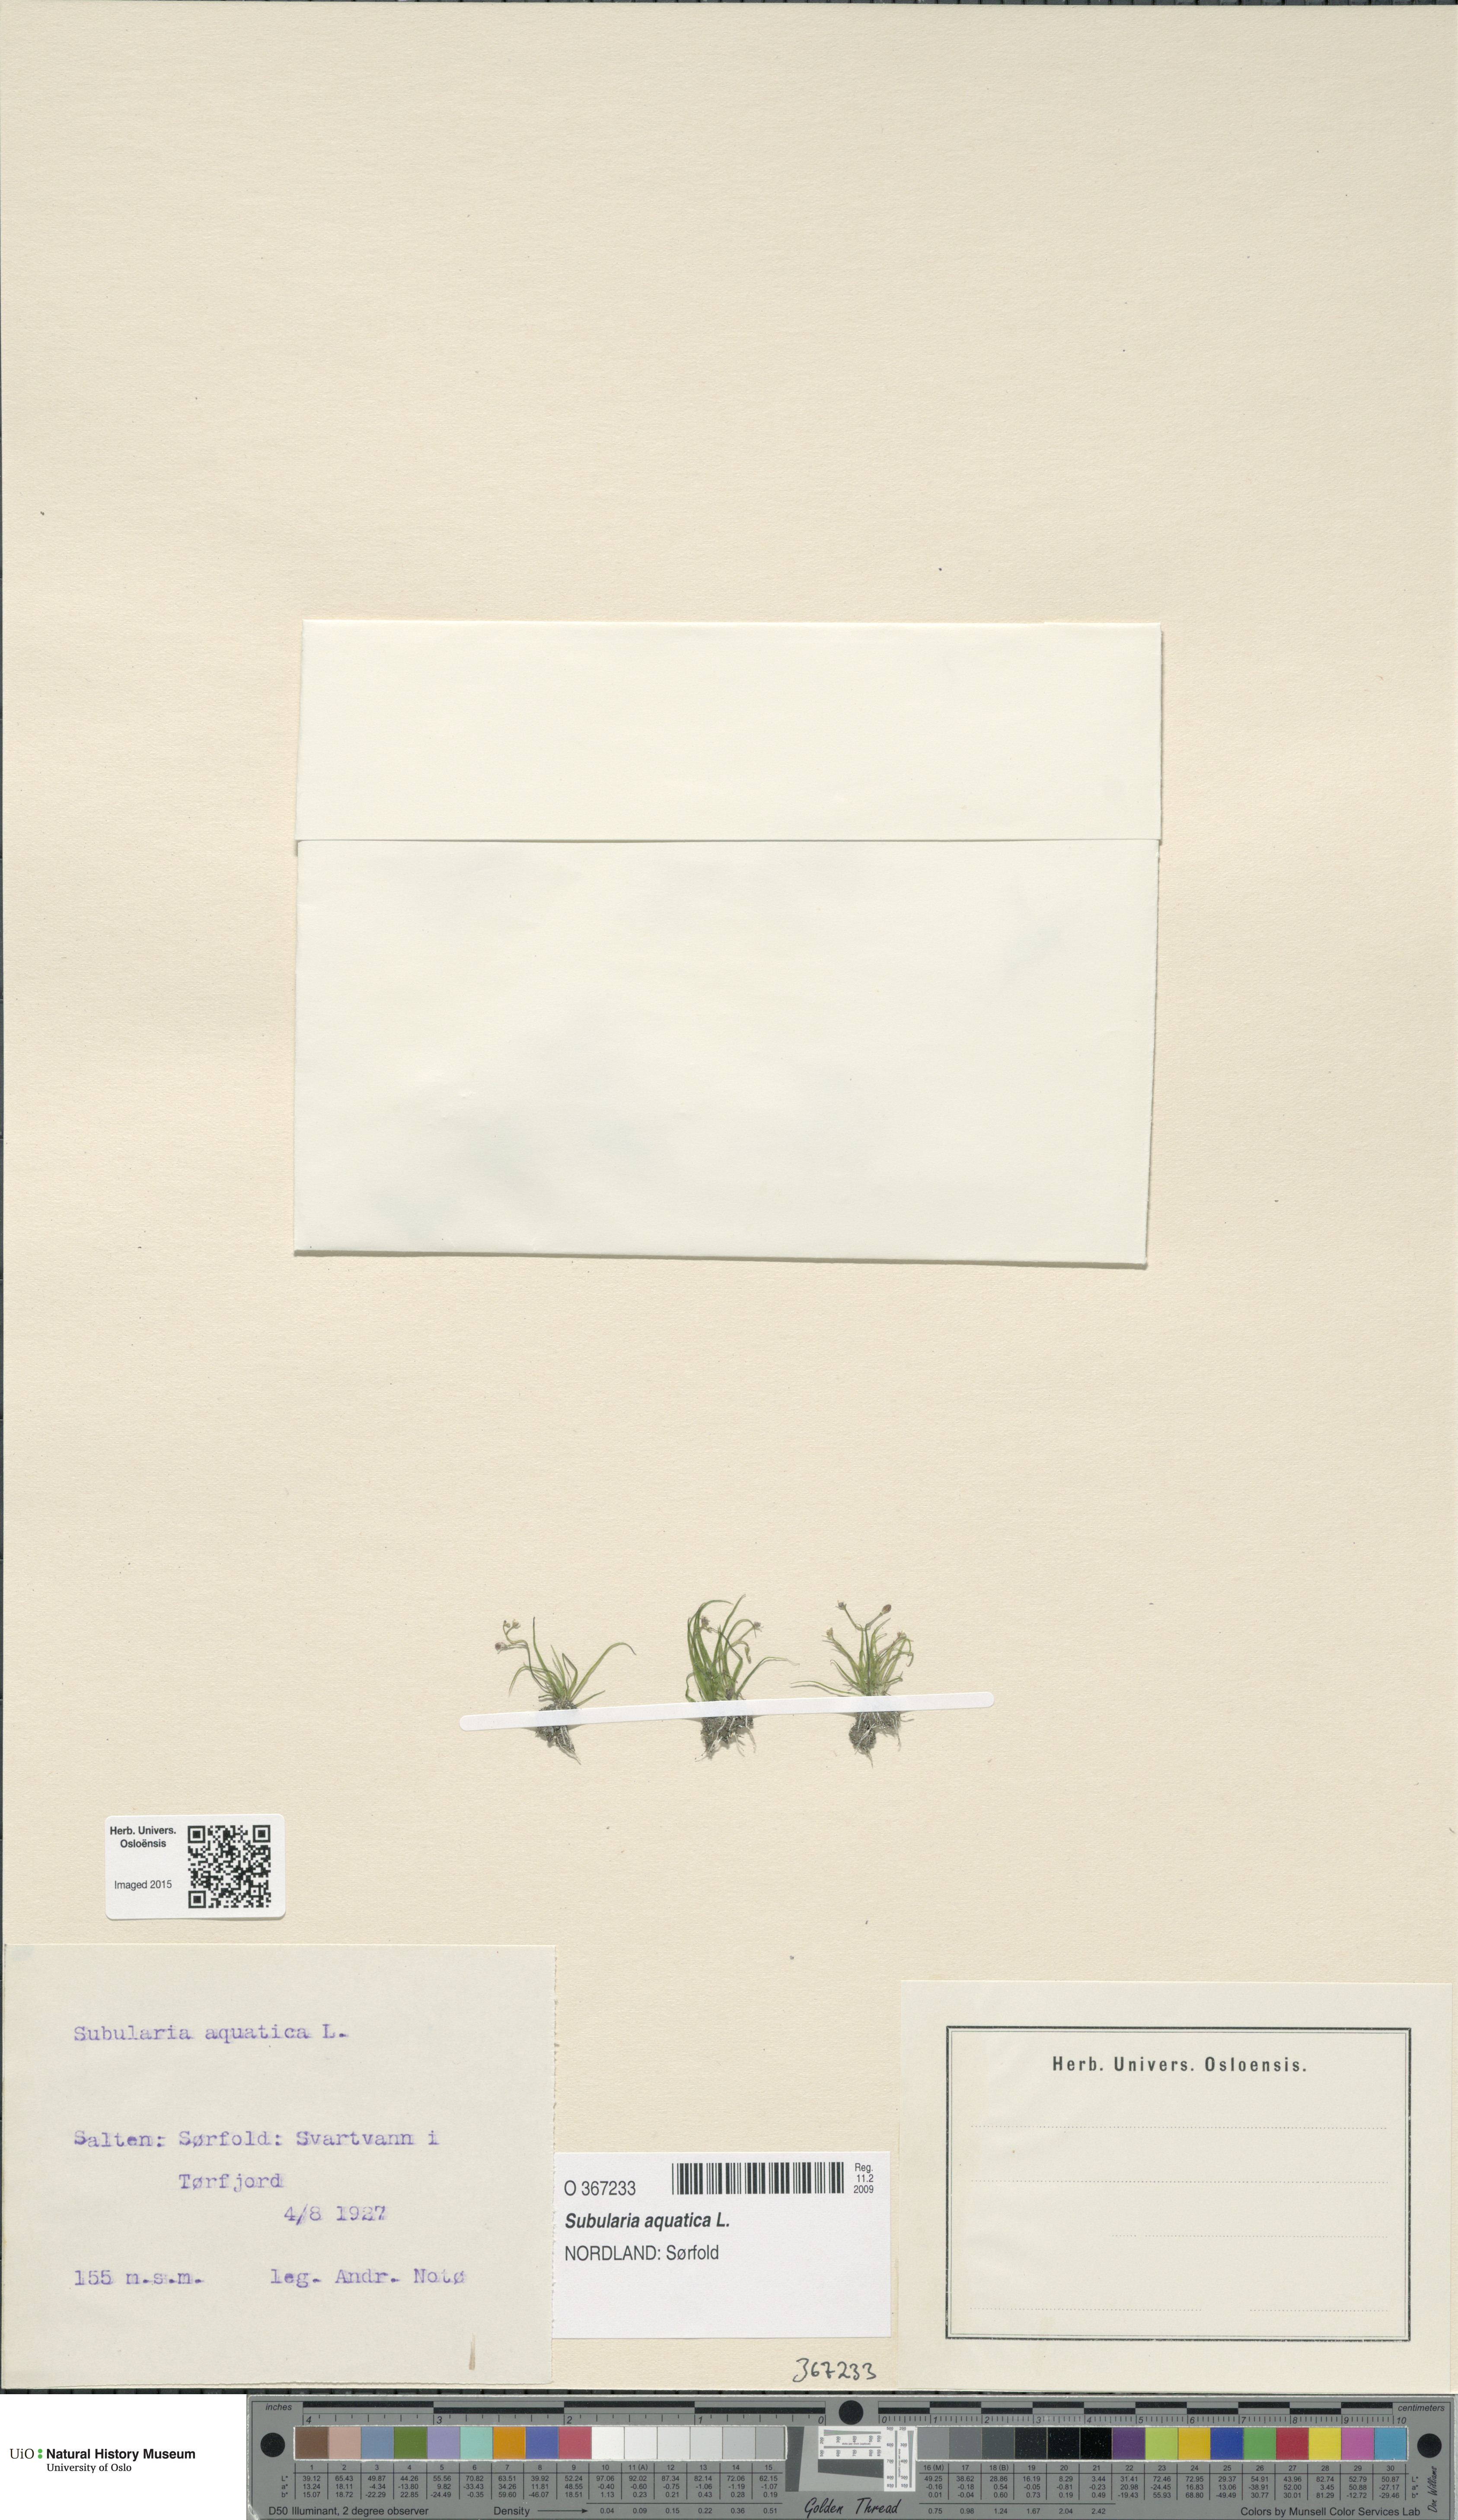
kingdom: Plantae
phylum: Tracheophyta
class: Magnoliopsida
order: Brassicales
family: Brassicaceae
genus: Subularia
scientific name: Subularia aquatica
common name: Awlwort
